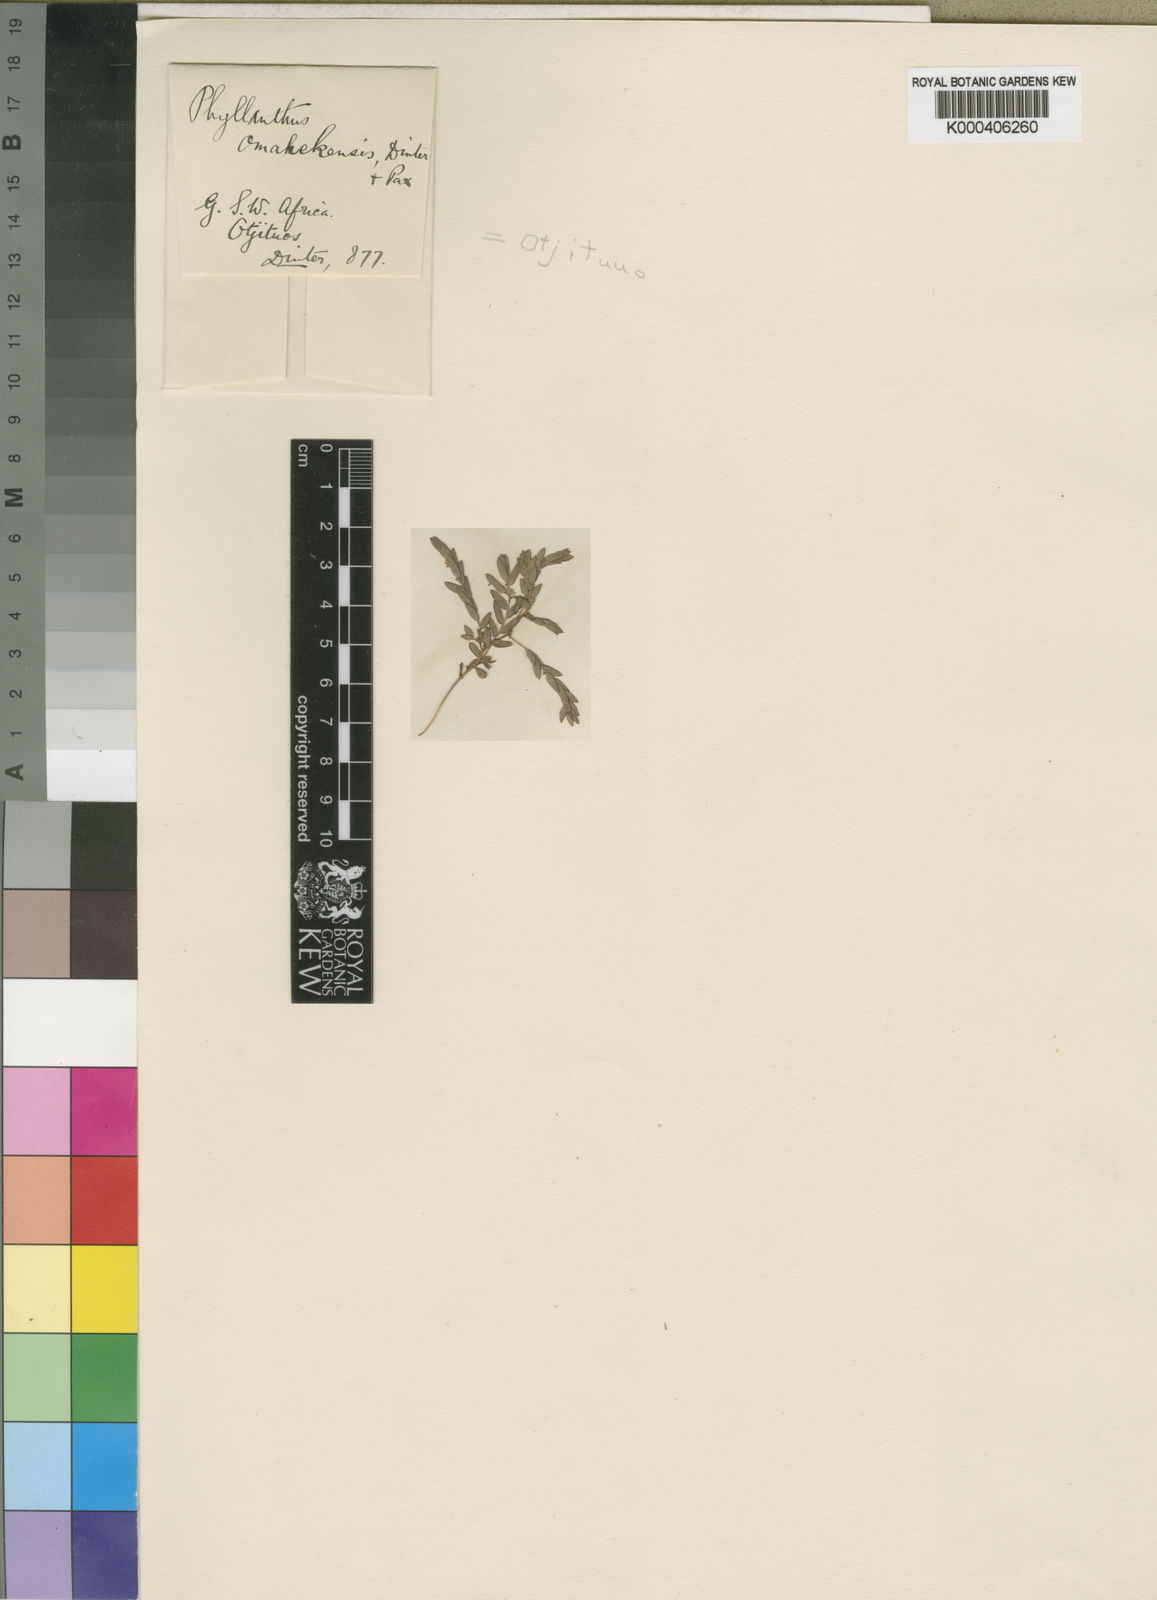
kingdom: Plantae
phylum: Tracheophyta
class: Magnoliopsida
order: Malpighiales
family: Phyllanthaceae
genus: Phyllanthus
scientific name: Phyllanthus omahakensis
